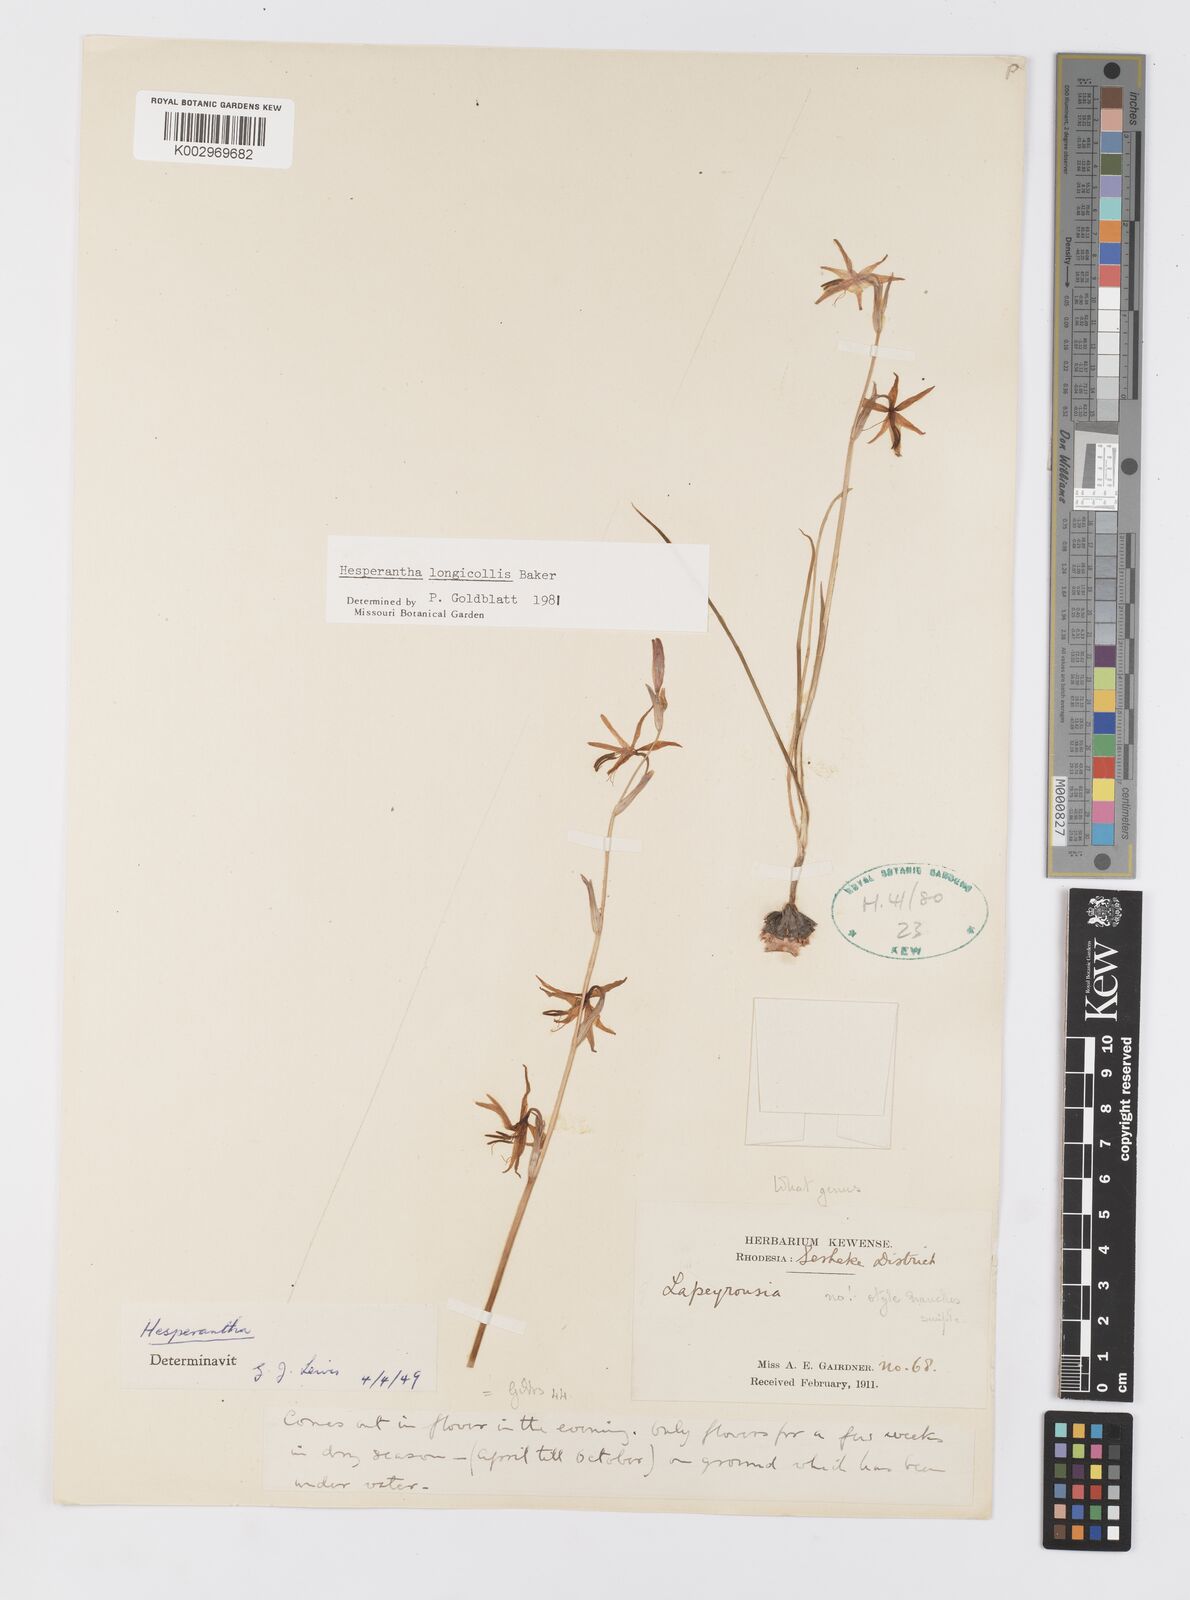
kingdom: Plantae
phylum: Tracheophyta
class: Liliopsida
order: Asparagales
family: Iridaceae
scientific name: Iridaceae
